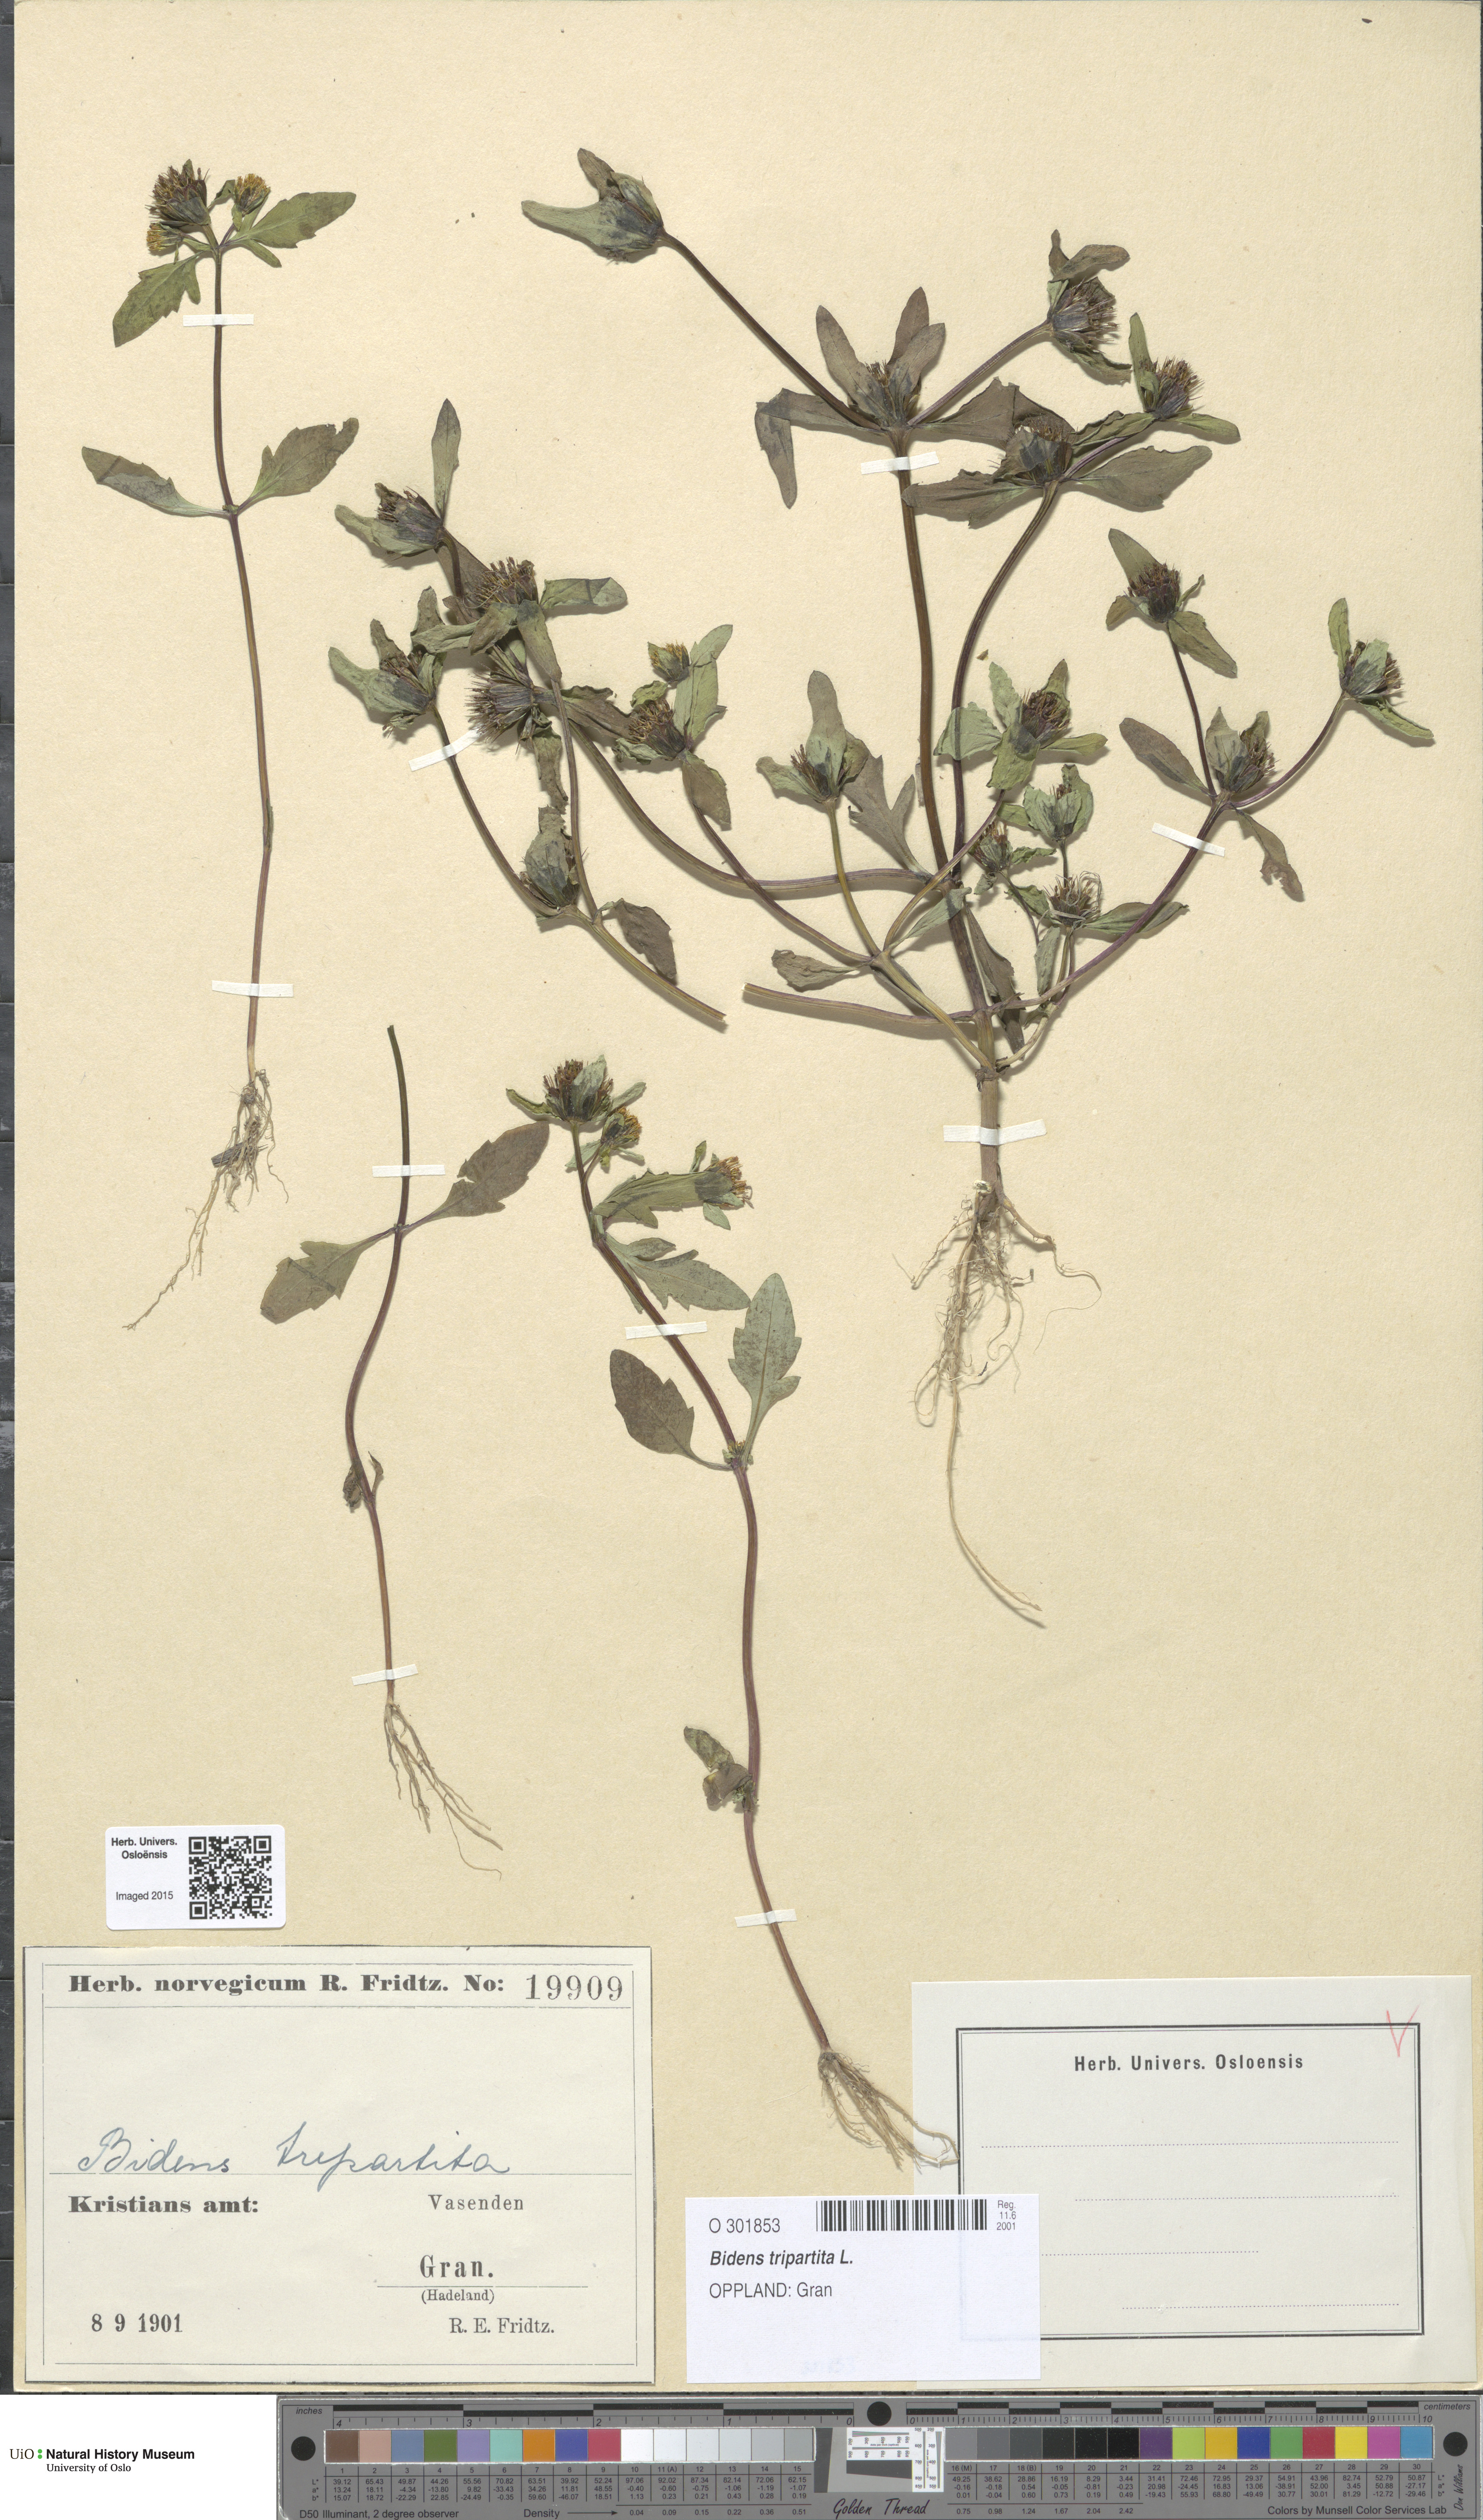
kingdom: Plantae
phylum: Tracheophyta
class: Magnoliopsida
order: Asterales
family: Asteraceae
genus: Bidens
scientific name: Bidens tripartita
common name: Trifid bur-marigold
